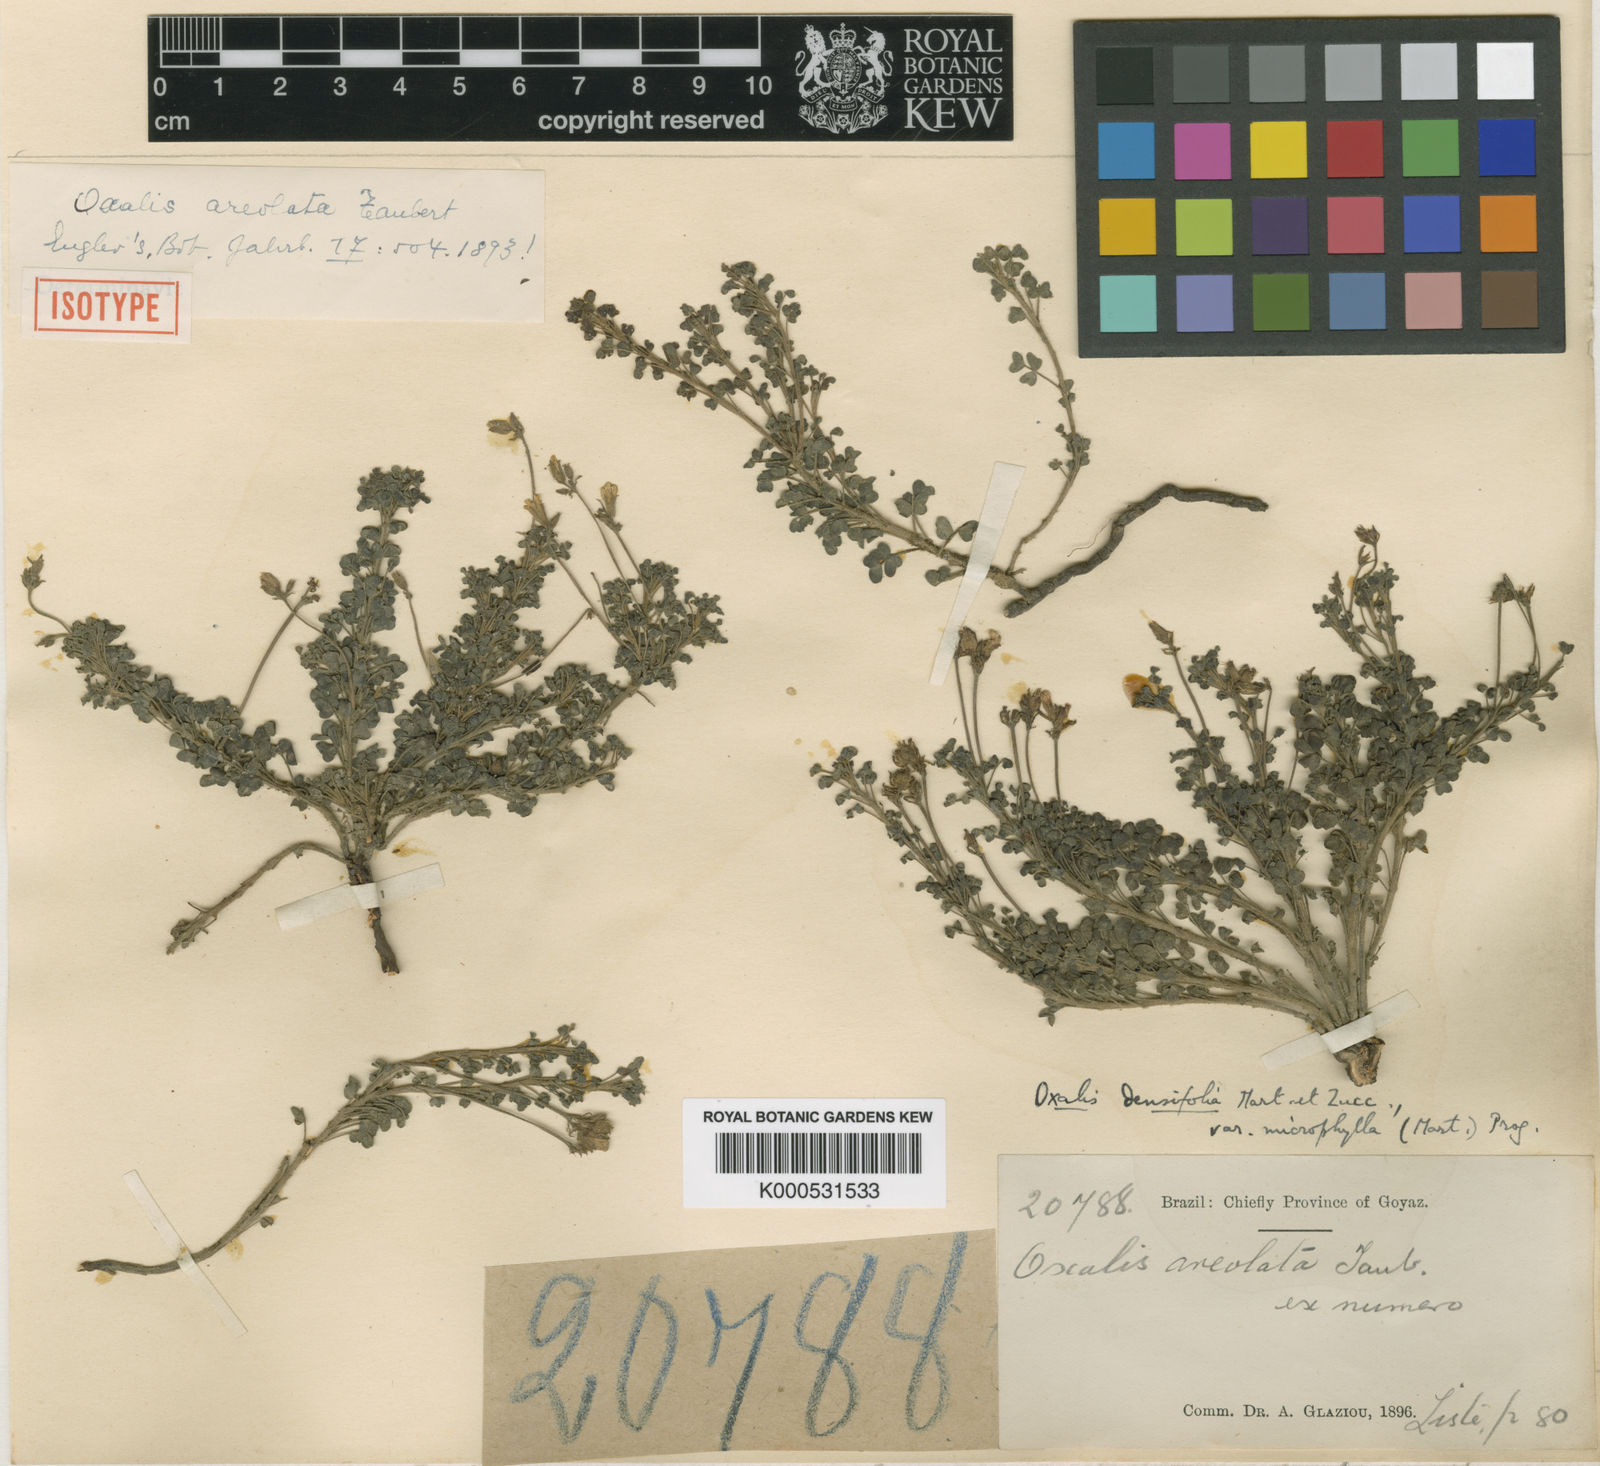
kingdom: Plantae
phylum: Tracheophyta
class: Magnoliopsida
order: Oxalidales
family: Oxalidaceae
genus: Oxalis
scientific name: Oxalis densifolia
